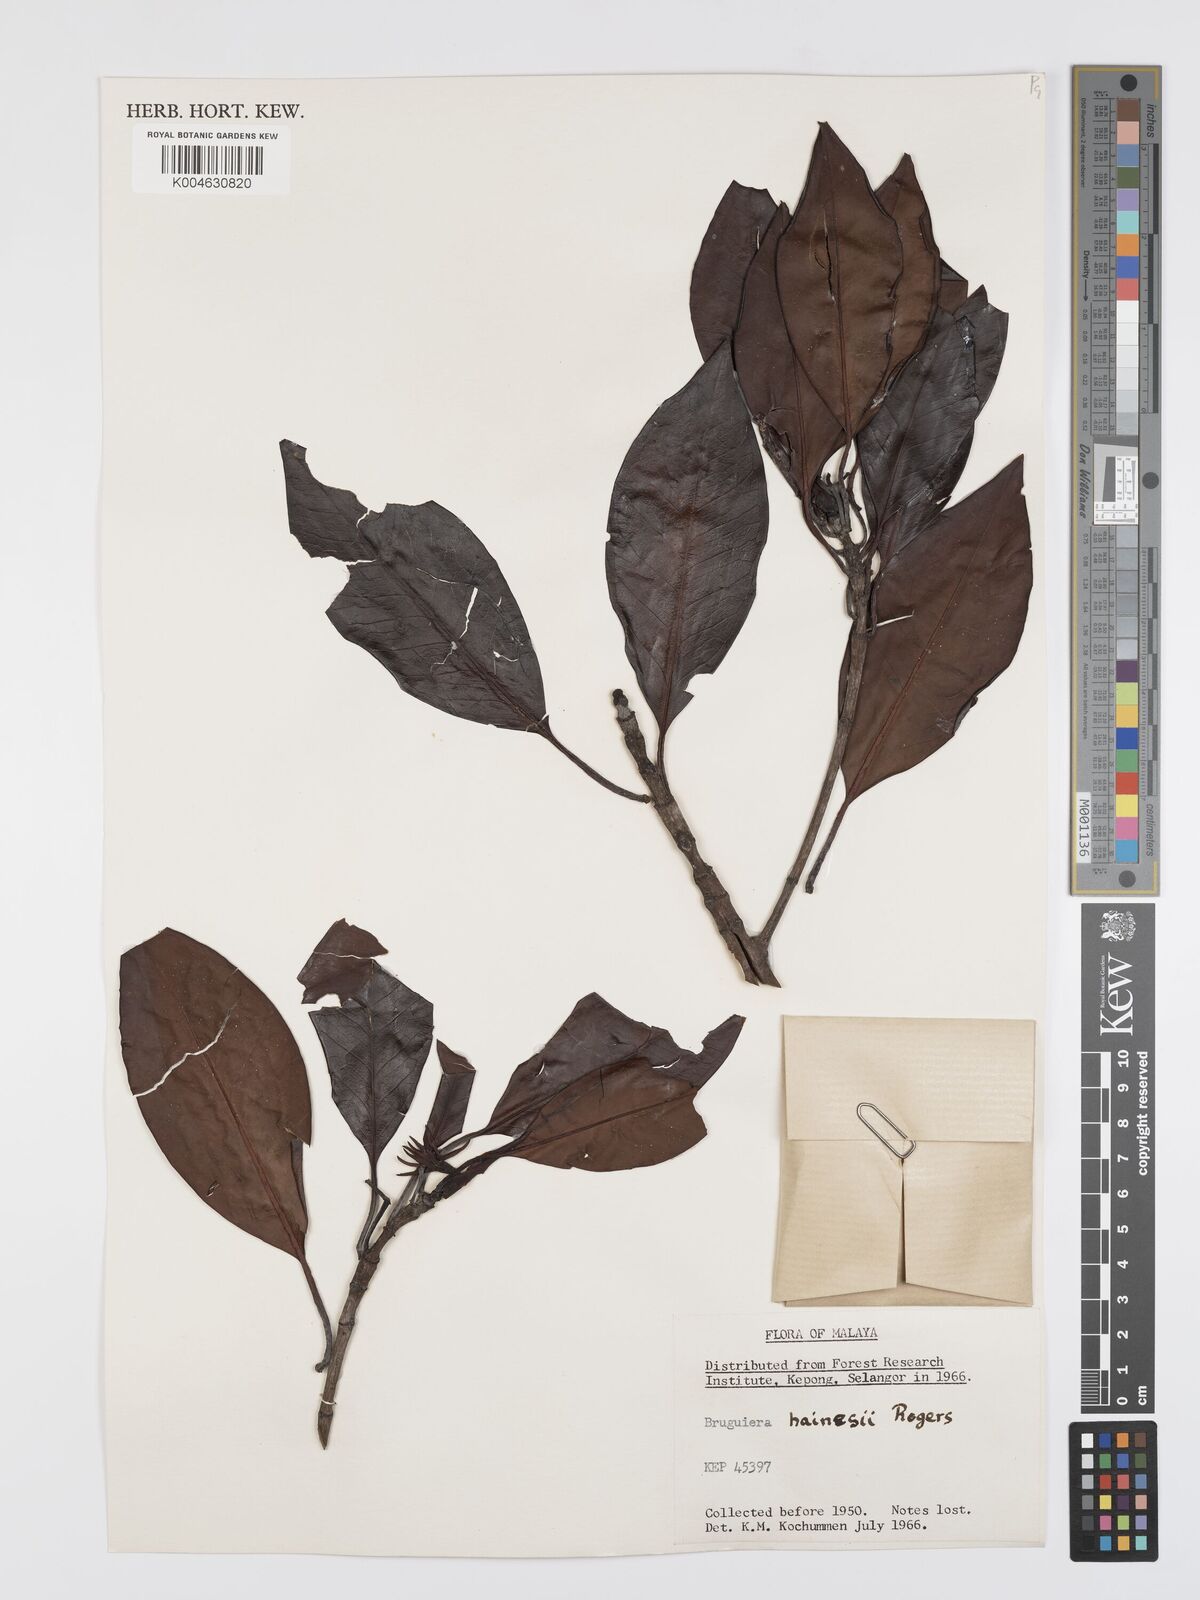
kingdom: Plantae
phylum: Tracheophyta
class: Magnoliopsida
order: Malpighiales
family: Rhizophoraceae
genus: Bruguiera
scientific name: Bruguiera hainesii
